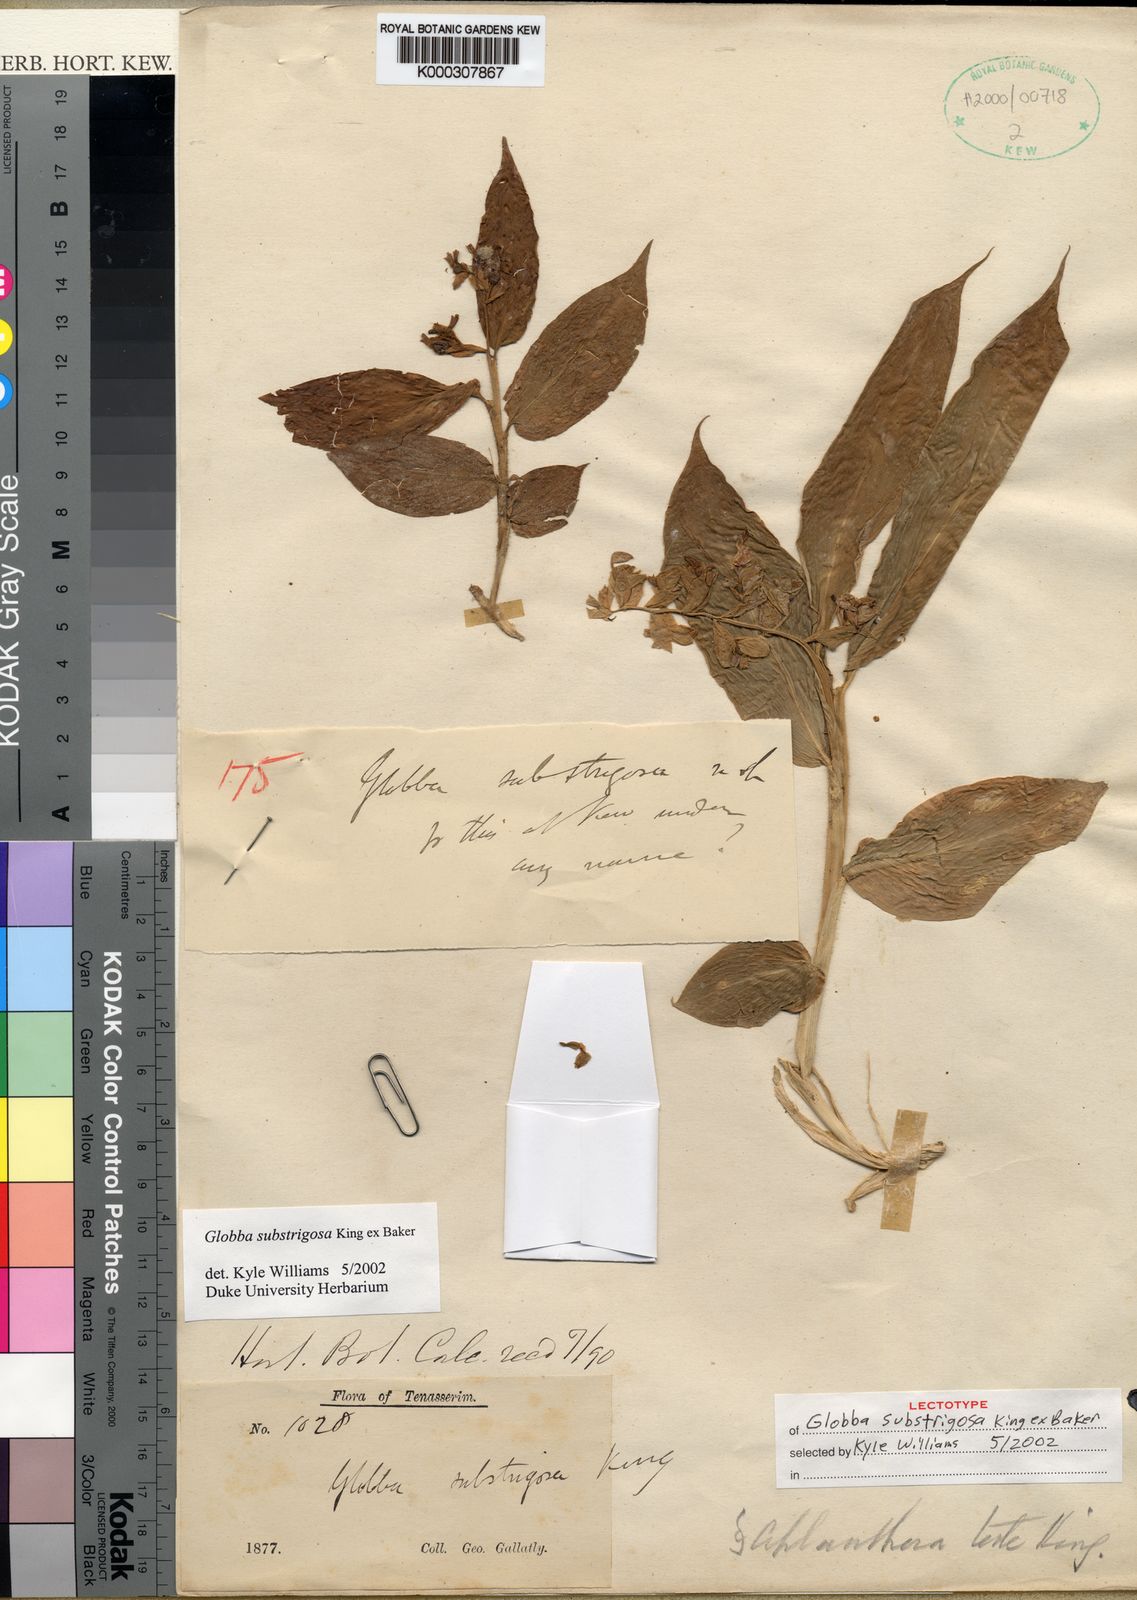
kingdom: Plantae
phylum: Tracheophyta
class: Liliopsida
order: Zingiberales
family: Zingiberaceae
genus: Globba
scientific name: Globba substrigosa
